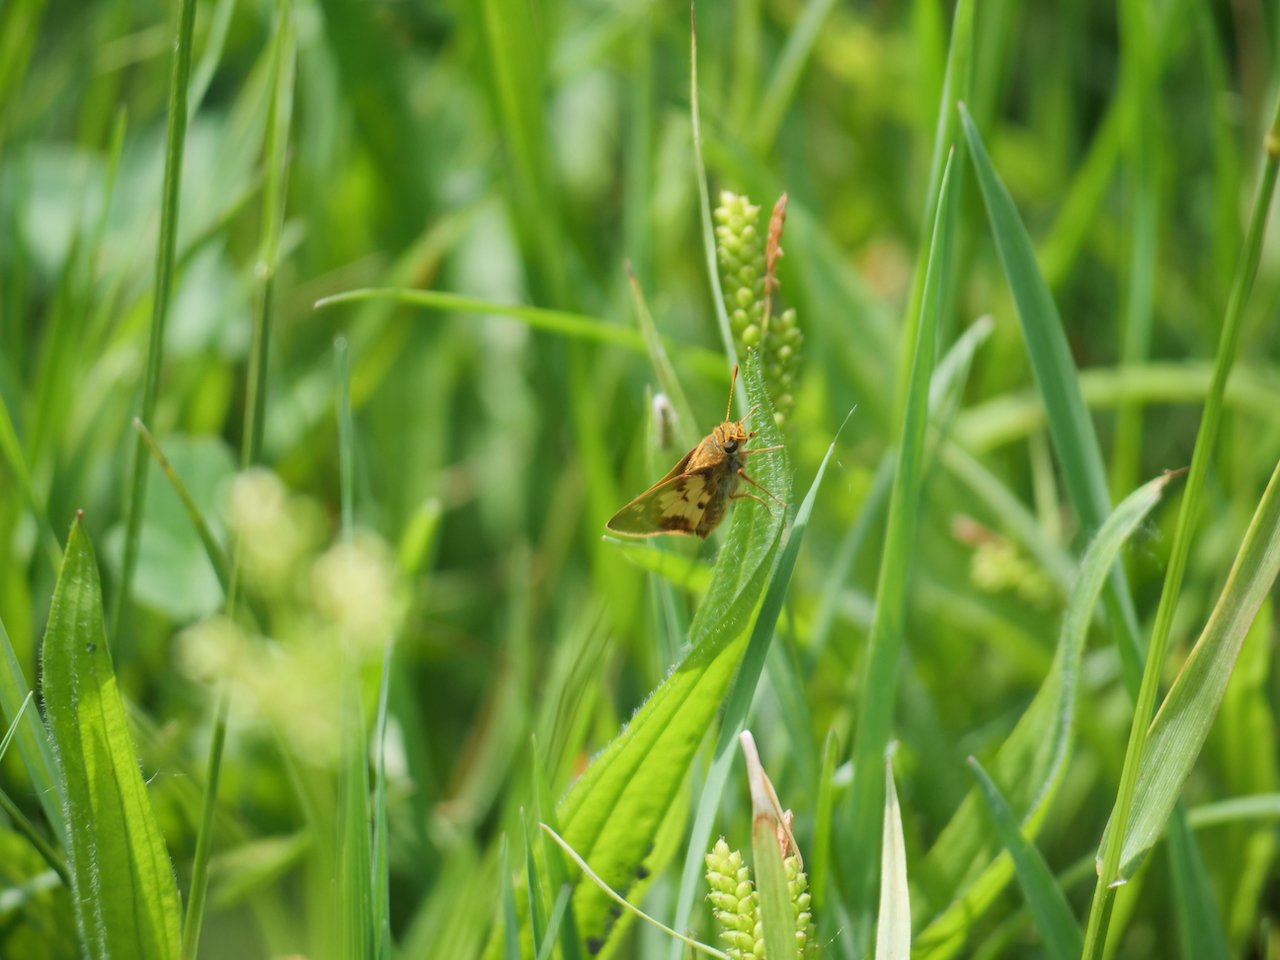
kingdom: Animalia
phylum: Arthropoda
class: Insecta
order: Lepidoptera
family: Hesperiidae
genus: Polites
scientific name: Polites coras
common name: Peck's Skipper
